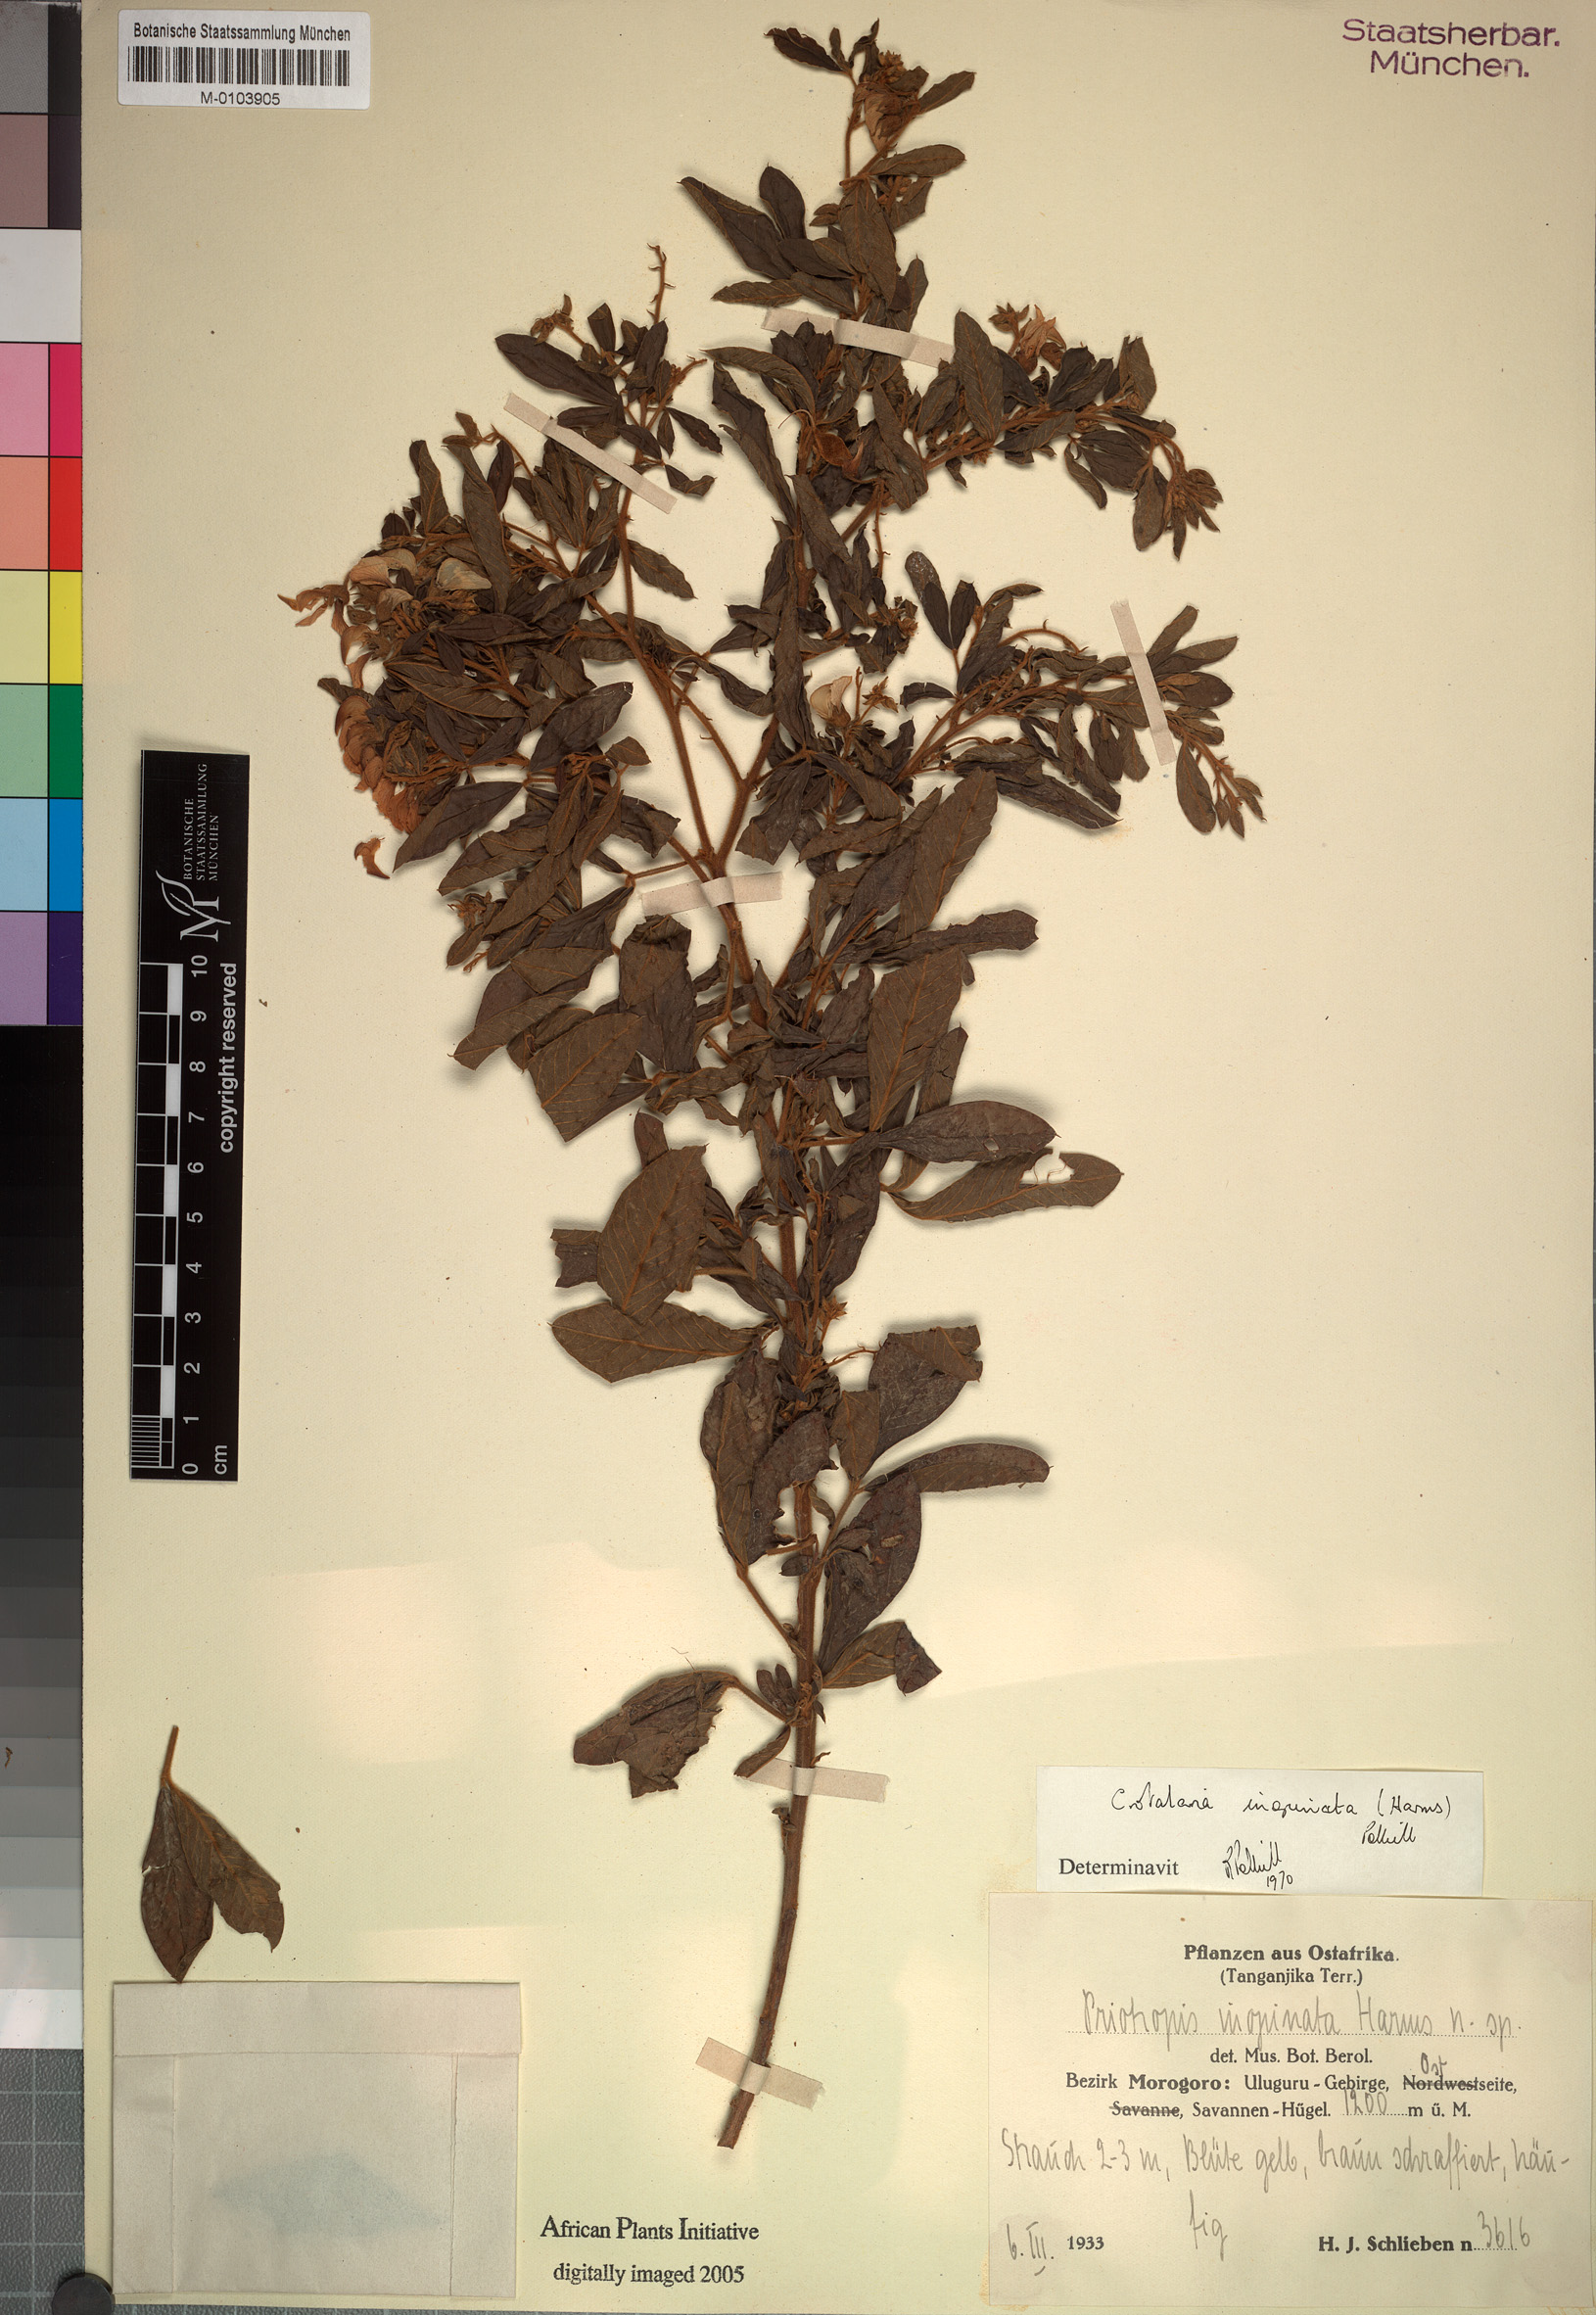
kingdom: Plantae
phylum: Tracheophyta
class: Magnoliopsida
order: Fabales
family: Fabaceae
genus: Crotalaria
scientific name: Crotalaria inopinata
